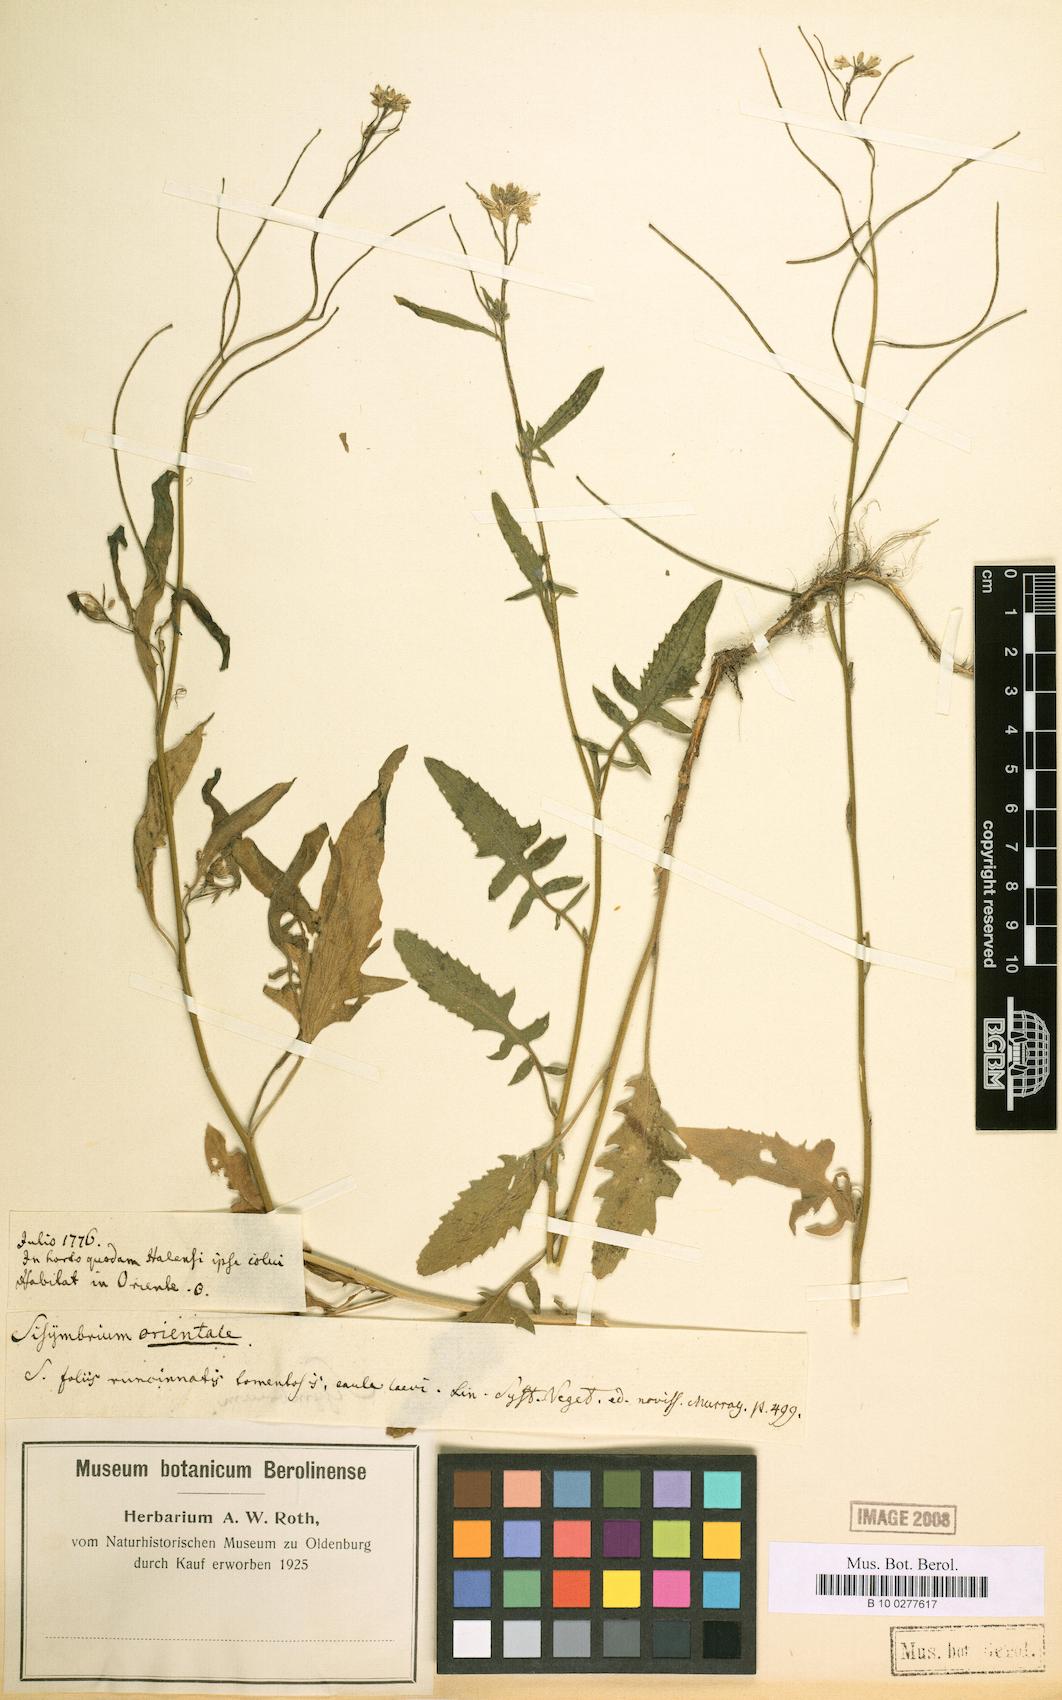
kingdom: Plantae
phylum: Tracheophyta
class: Magnoliopsida
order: Brassicales
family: Brassicaceae
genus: Sisymbrium
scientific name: Sisymbrium orientale
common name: Eastern rocket
